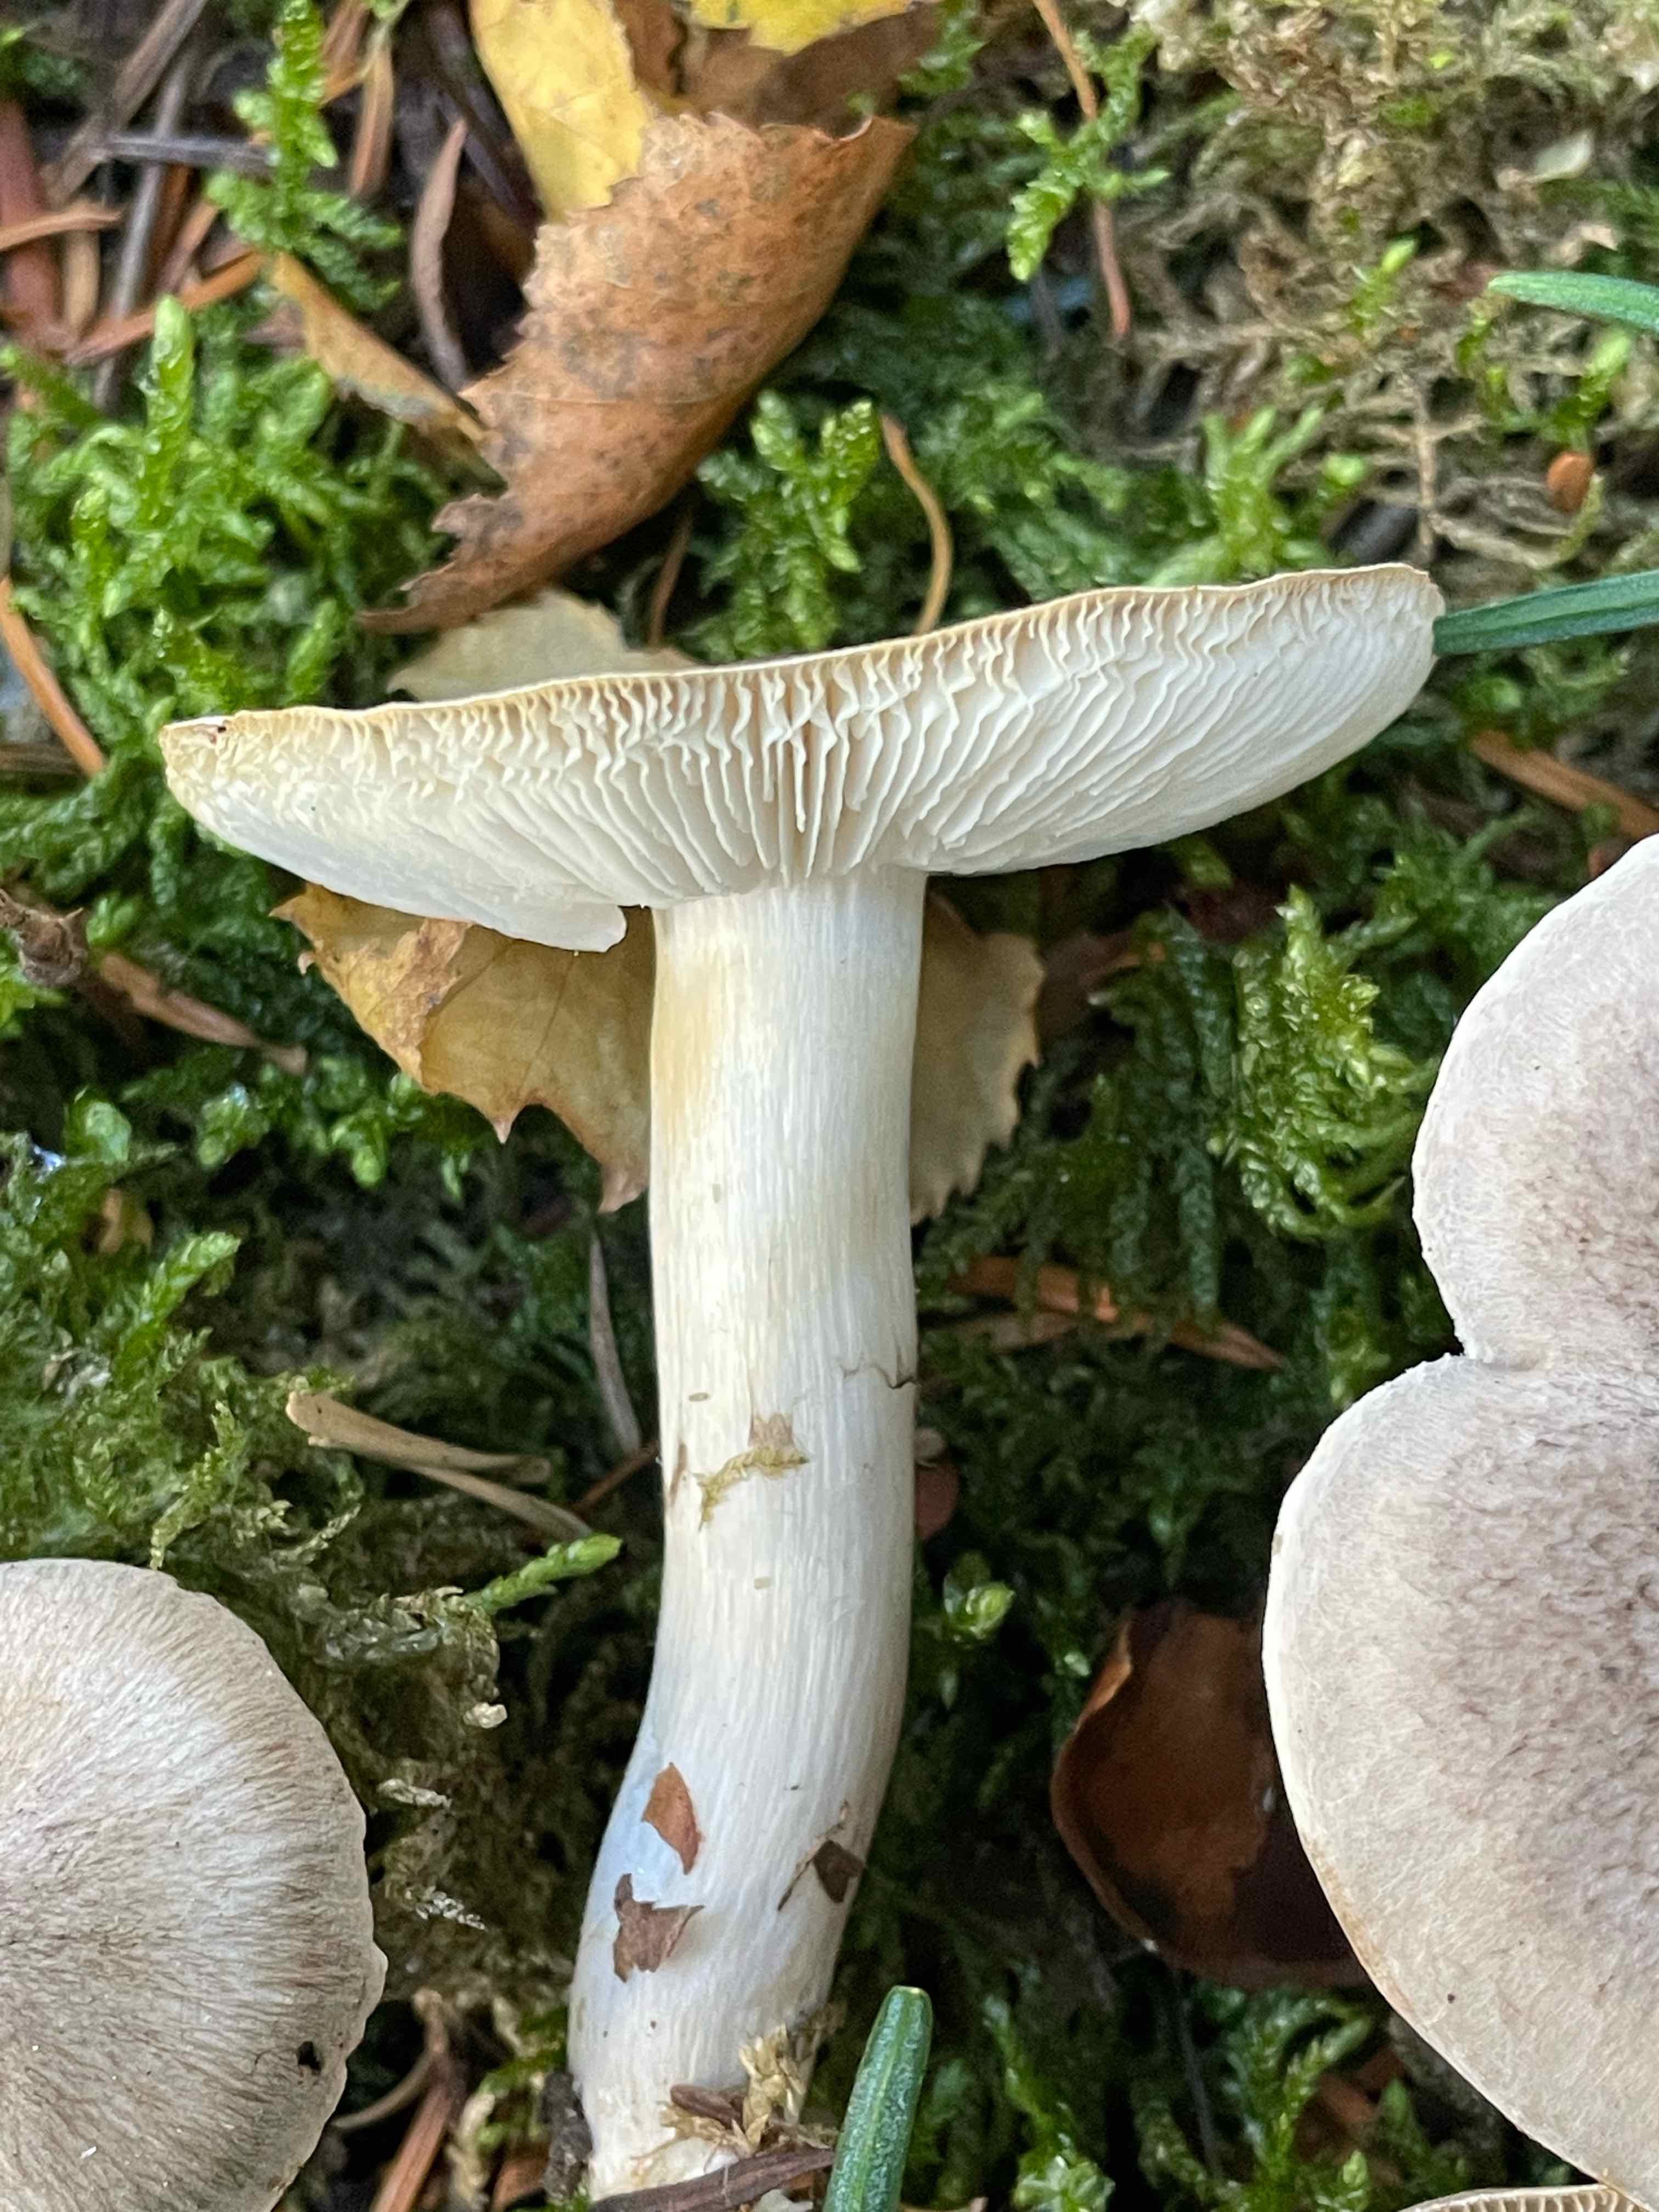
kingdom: Fungi
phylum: Basidiomycota
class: Agaricomycetes
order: Agaricales
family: Tricholomataceae
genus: Tricholoma
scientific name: Tricholoma scalpturatum
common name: gulplettet ridderhat
